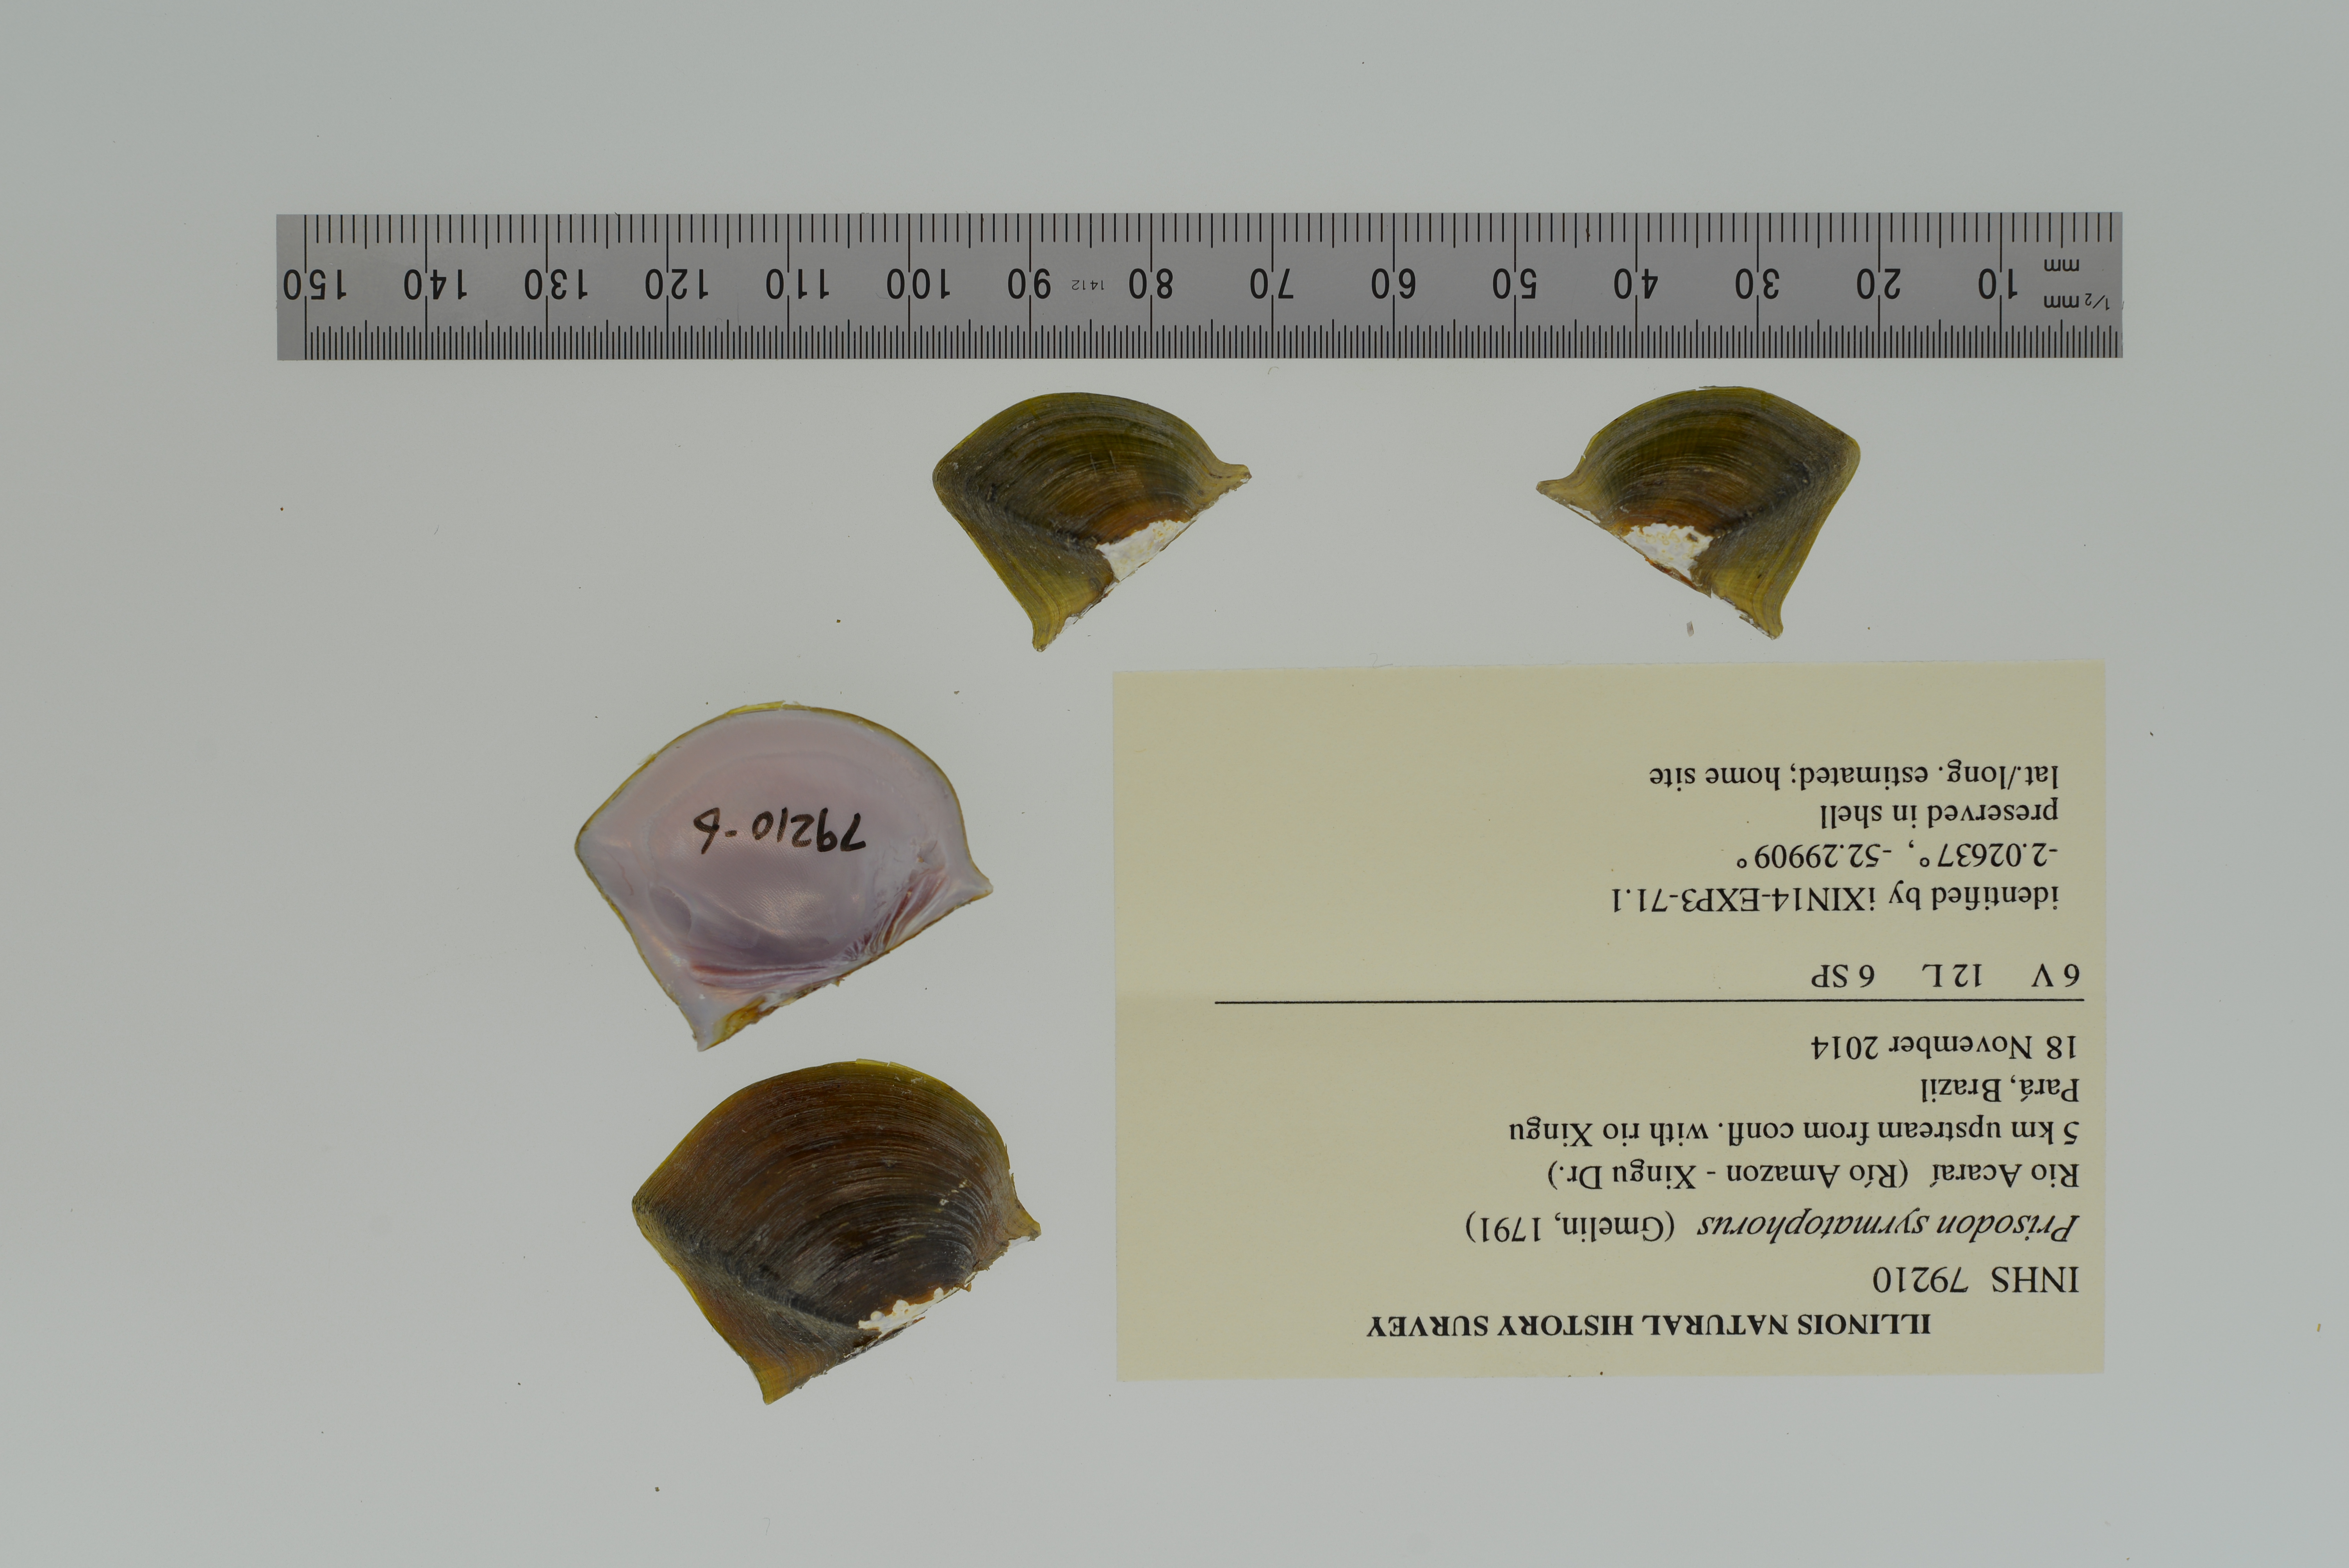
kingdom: Animalia
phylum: Mollusca
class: Bivalvia
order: Unionida
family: Hyriidae
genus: Prisodon
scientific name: Prisodon syrmatophorus
